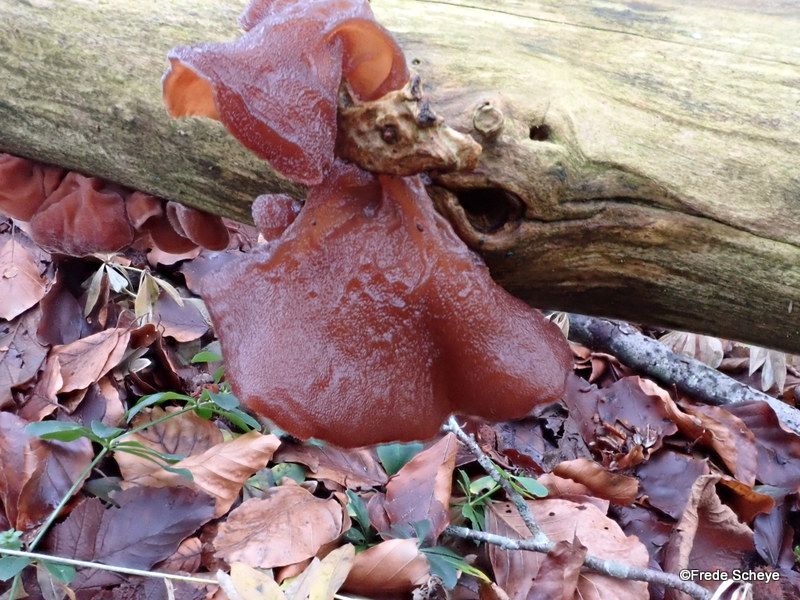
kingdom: Fungi
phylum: Basidiomycota
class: Agaricomycetes
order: Auriculariales
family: Auriculariaceae
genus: Auricularia
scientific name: Auricularia auricula-judae
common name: almindelig judasøre
